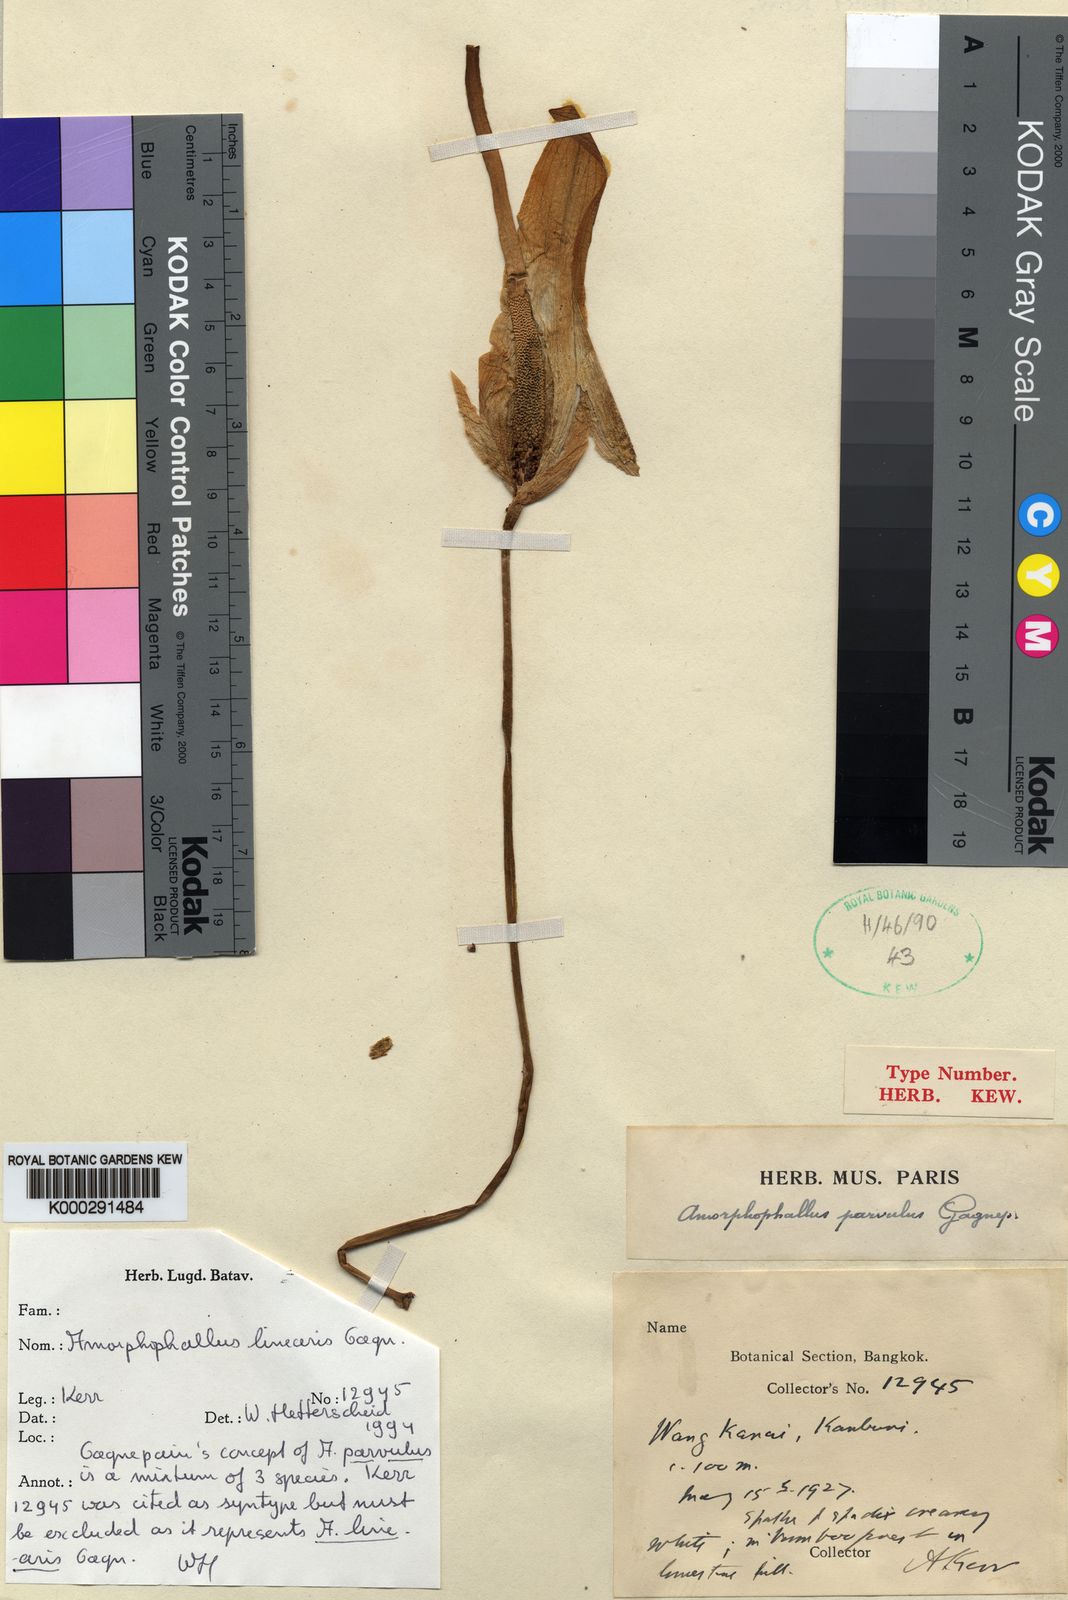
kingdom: Plantae
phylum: Tracheophyta
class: Liliopsida
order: Alismatales
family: Araceae
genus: Amorphophallus
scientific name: Amorphophallus linearis
